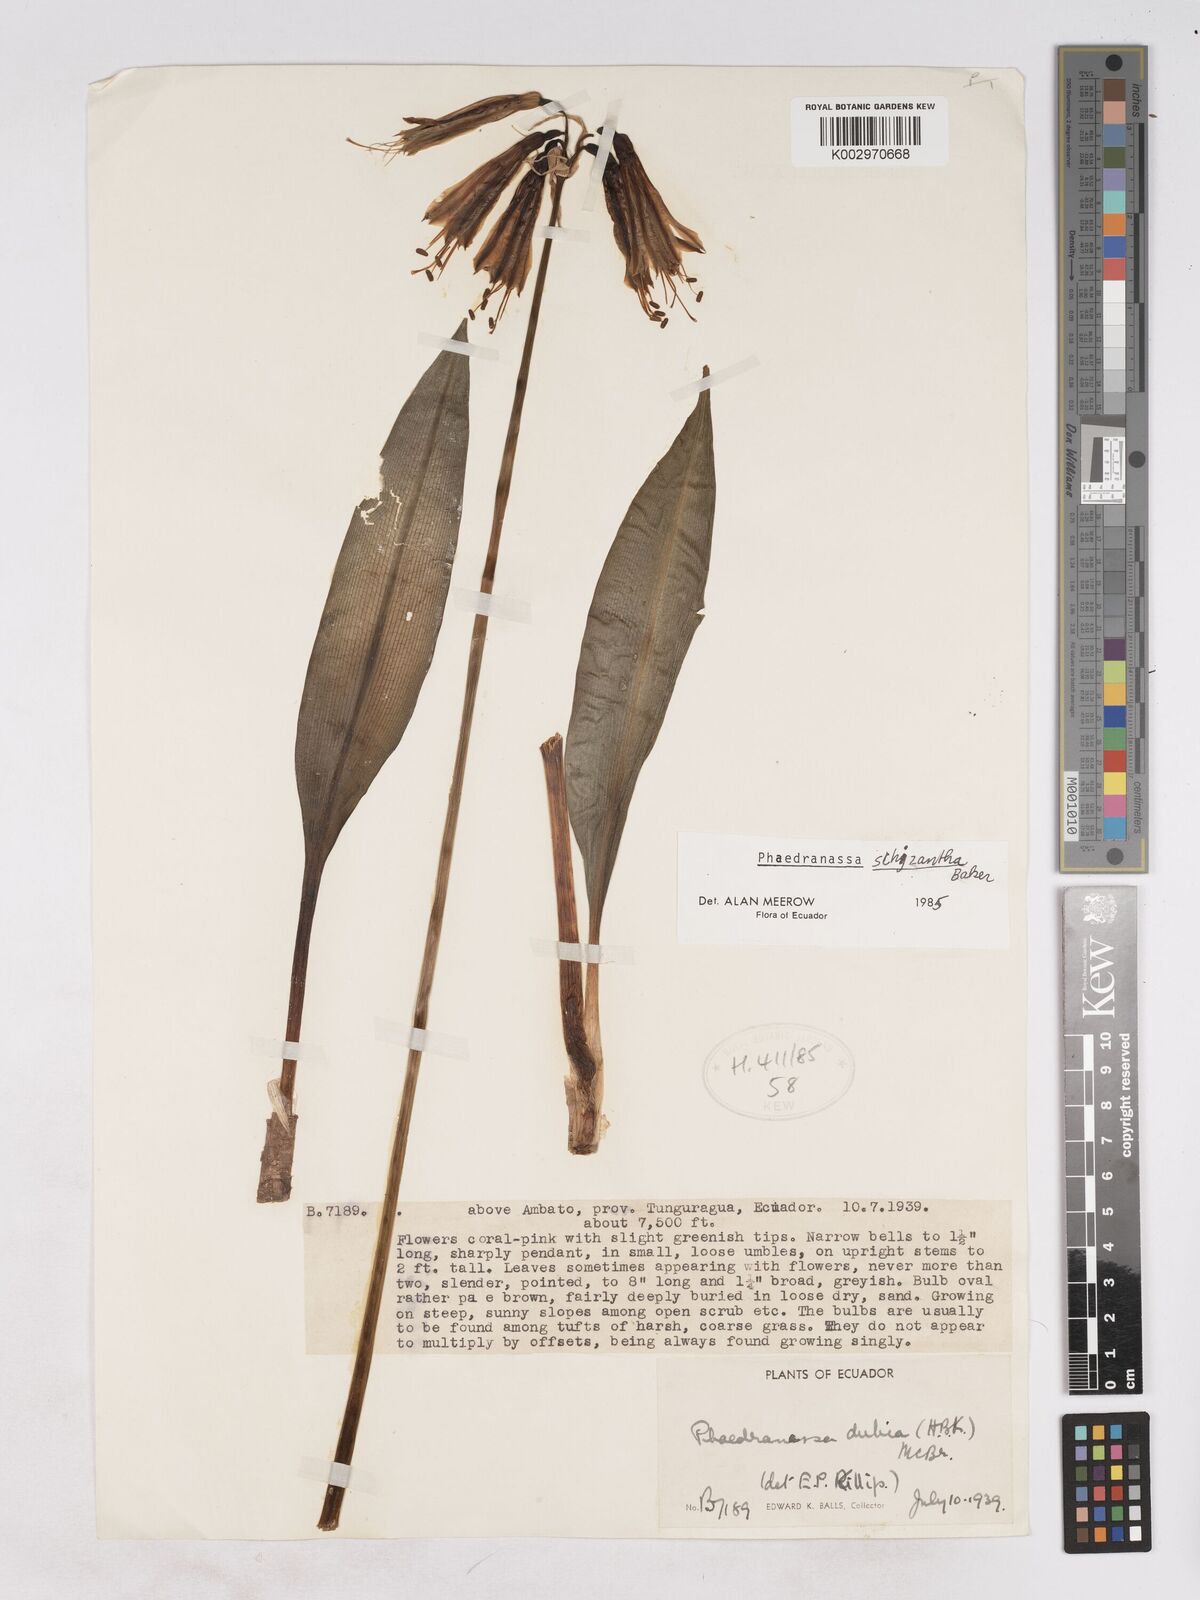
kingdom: Plantae
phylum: Tracheophyta
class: Liliopsida
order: Asparagales
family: Amaryllidaceae
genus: Phaedranassa
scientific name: Phaedranassa schizantha
